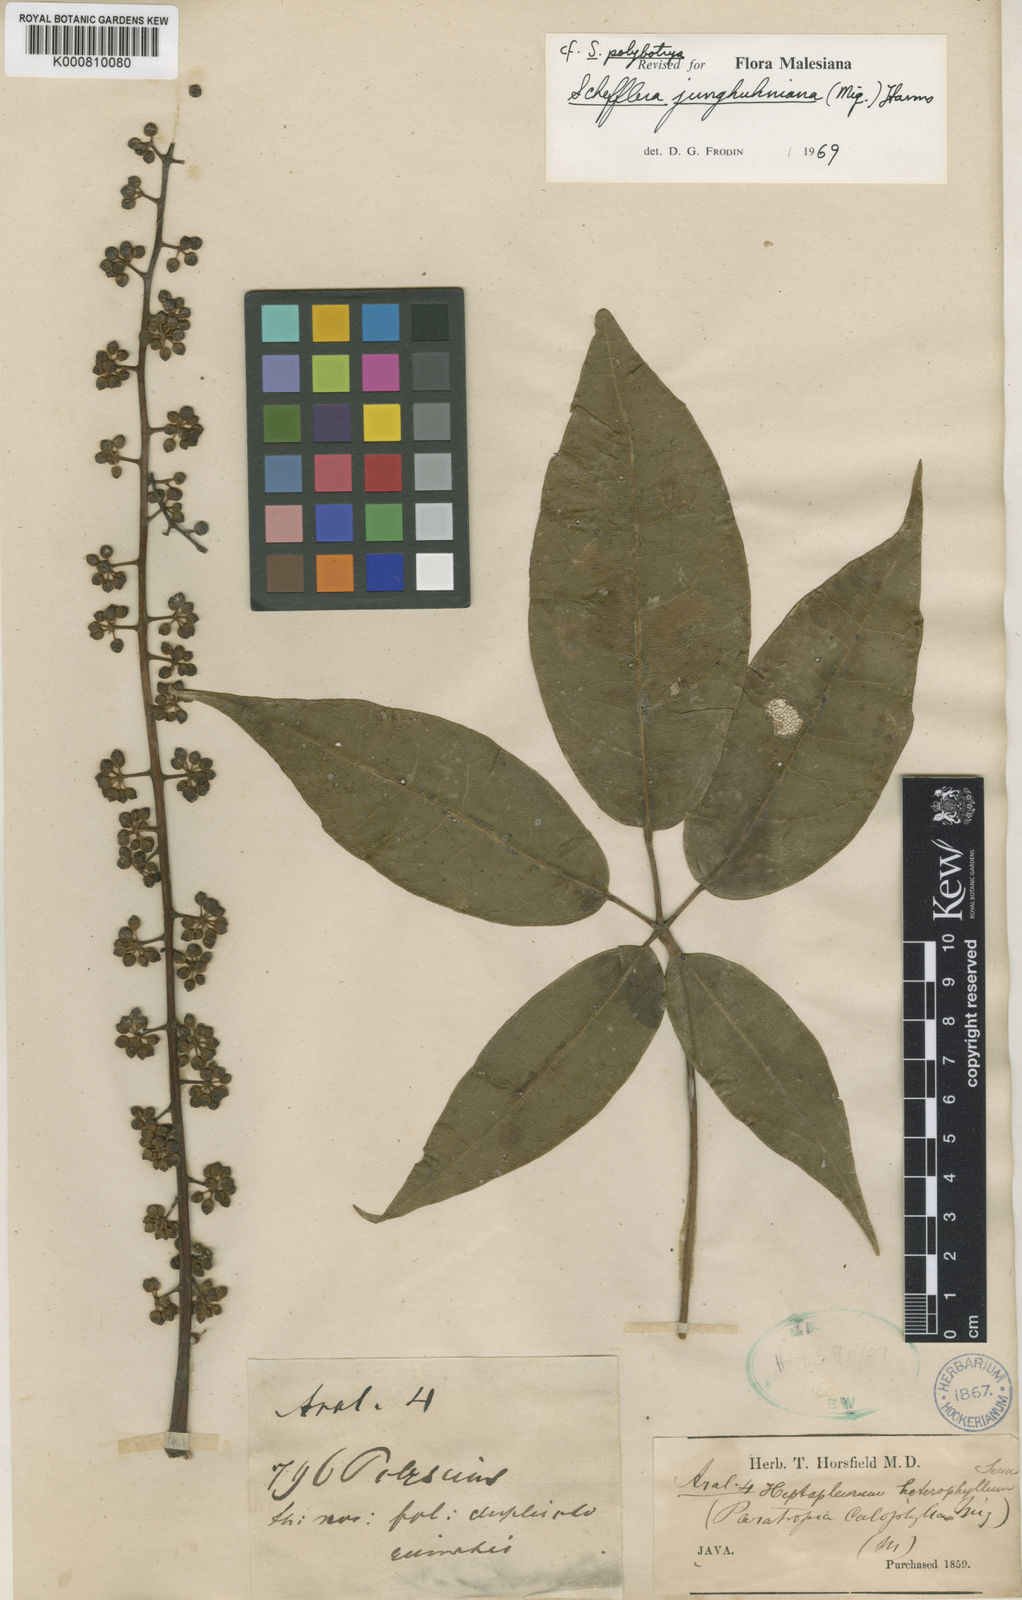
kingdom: Plantae
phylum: Tracheophyta
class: Magnoliopsida
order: Apiales
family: Araliaceae
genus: Heptapleurum
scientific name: Heptapleurum junghuhnianum
